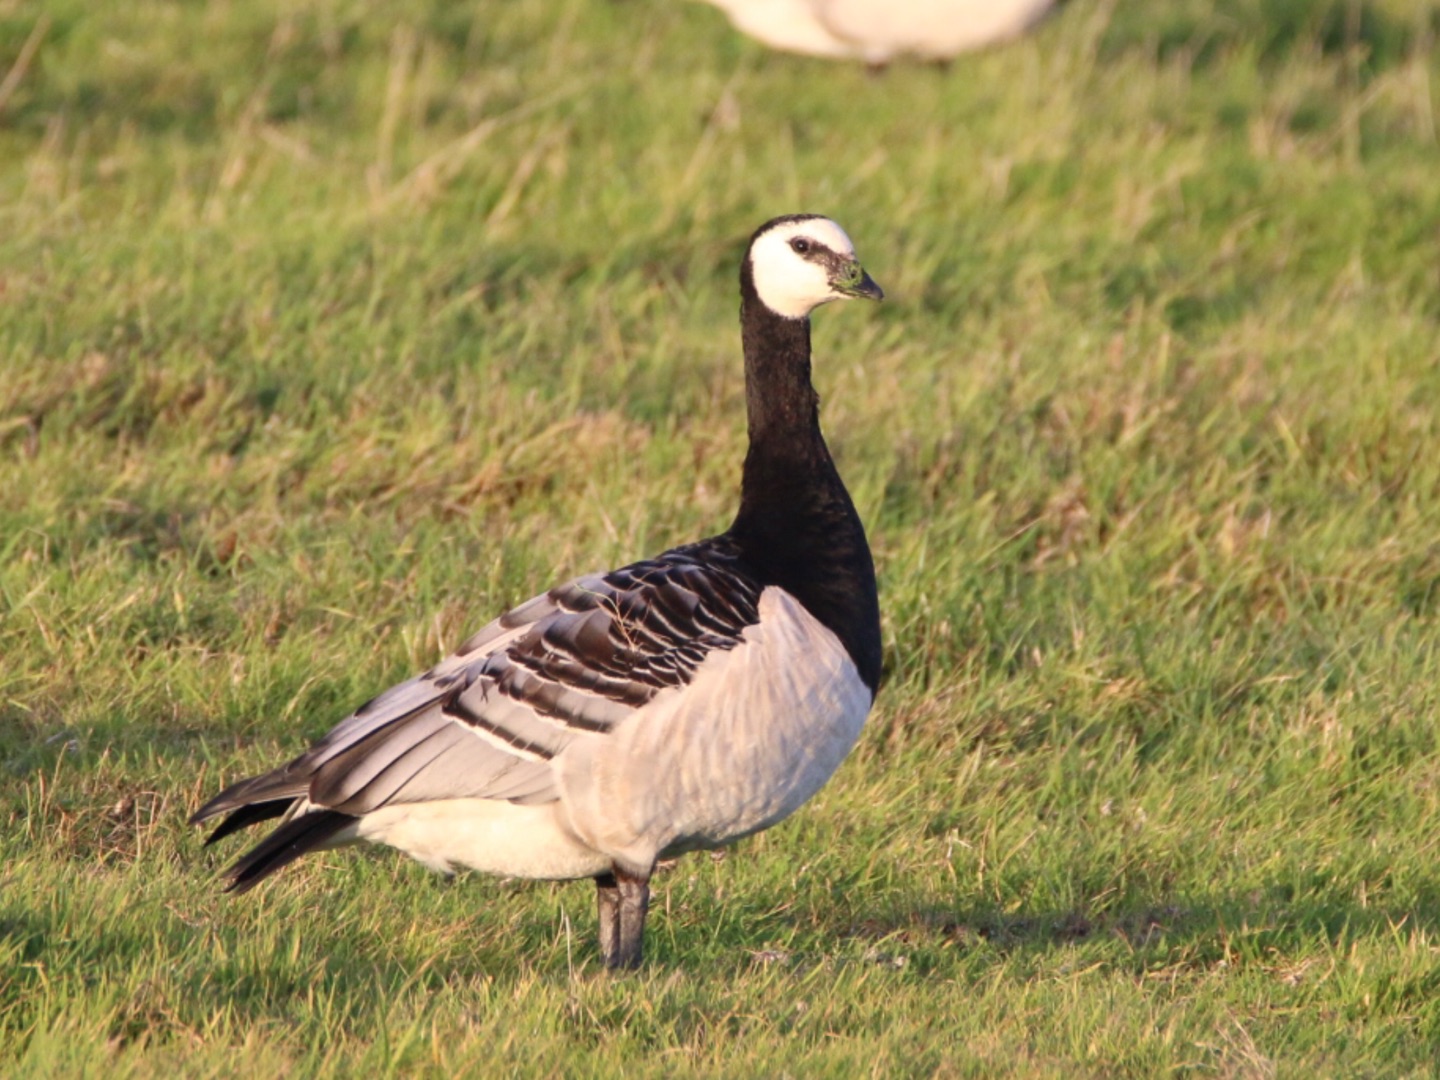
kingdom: Animalia
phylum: Chordata
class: Aves
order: Anseriformes
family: Anatidae
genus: Branta
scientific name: Branta leucopsis
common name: Bramgås
